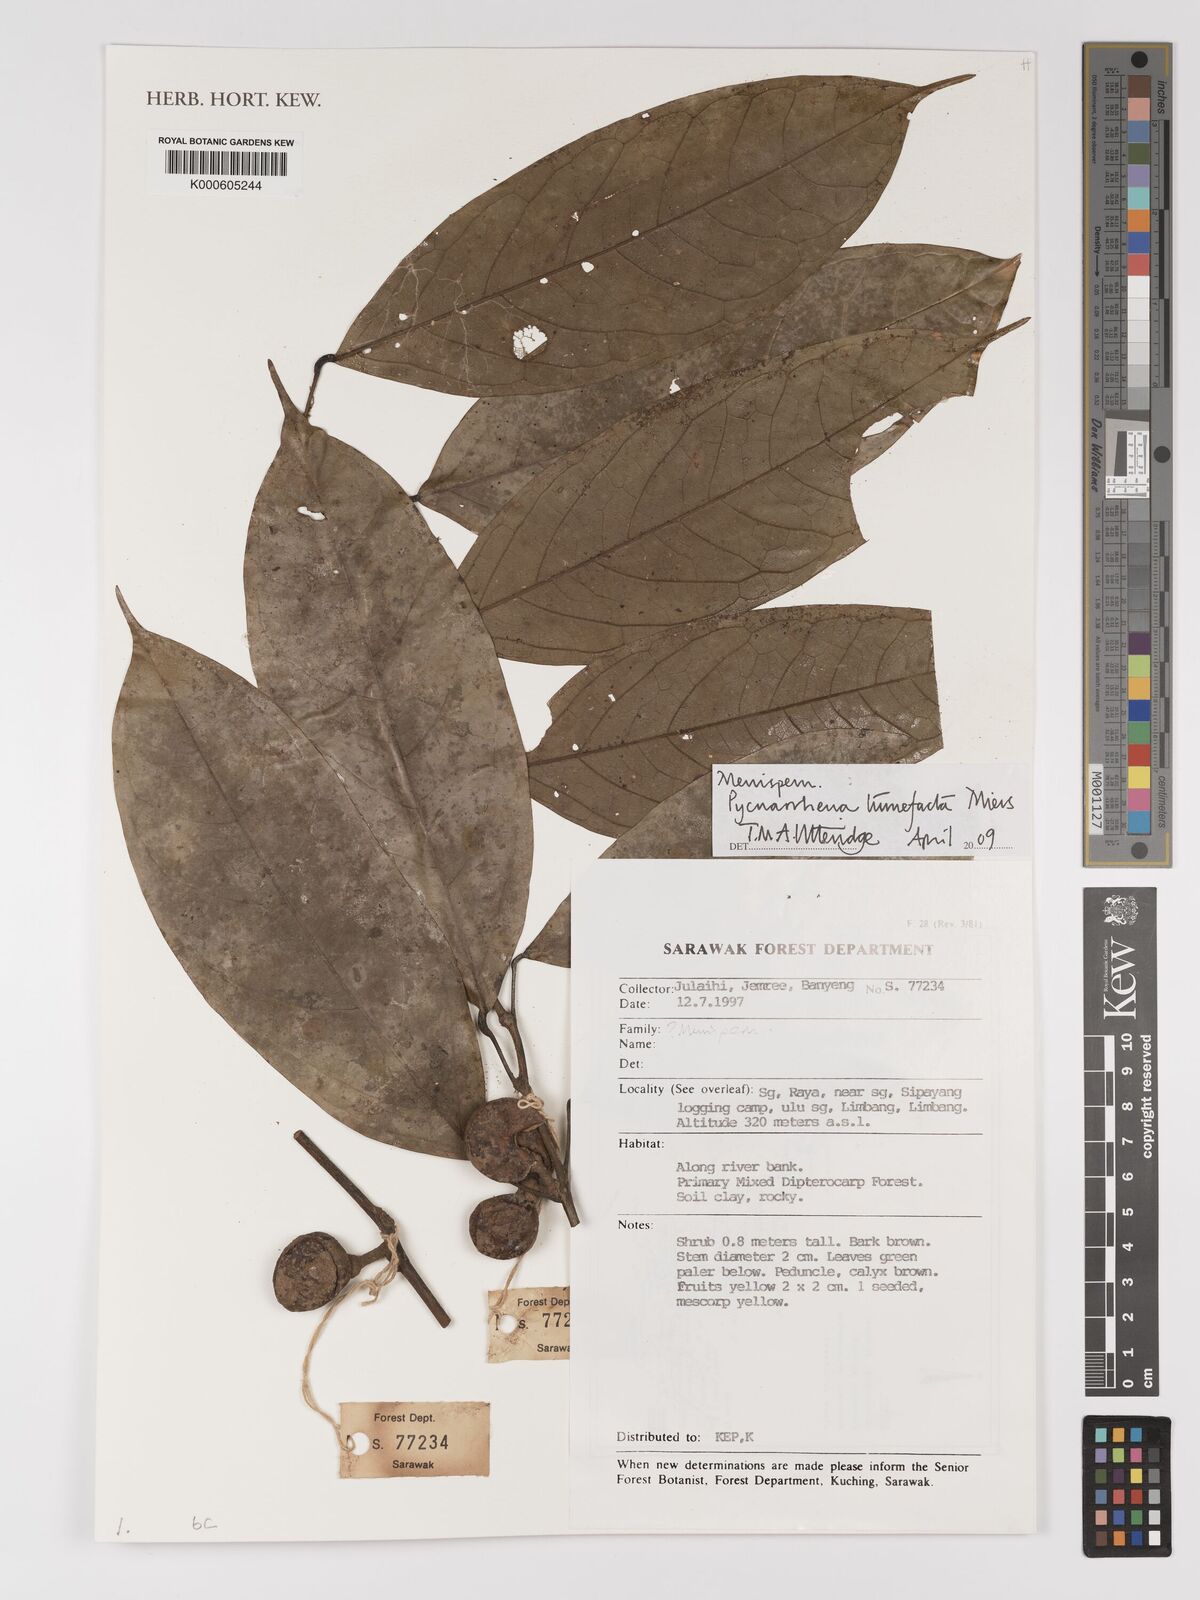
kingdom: Plantae
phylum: Tracheophyta
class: Magnoliopsida
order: Ranunculales
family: Menispermaceae
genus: Pycnarrhena
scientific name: Pycnarrhena tumefacta
